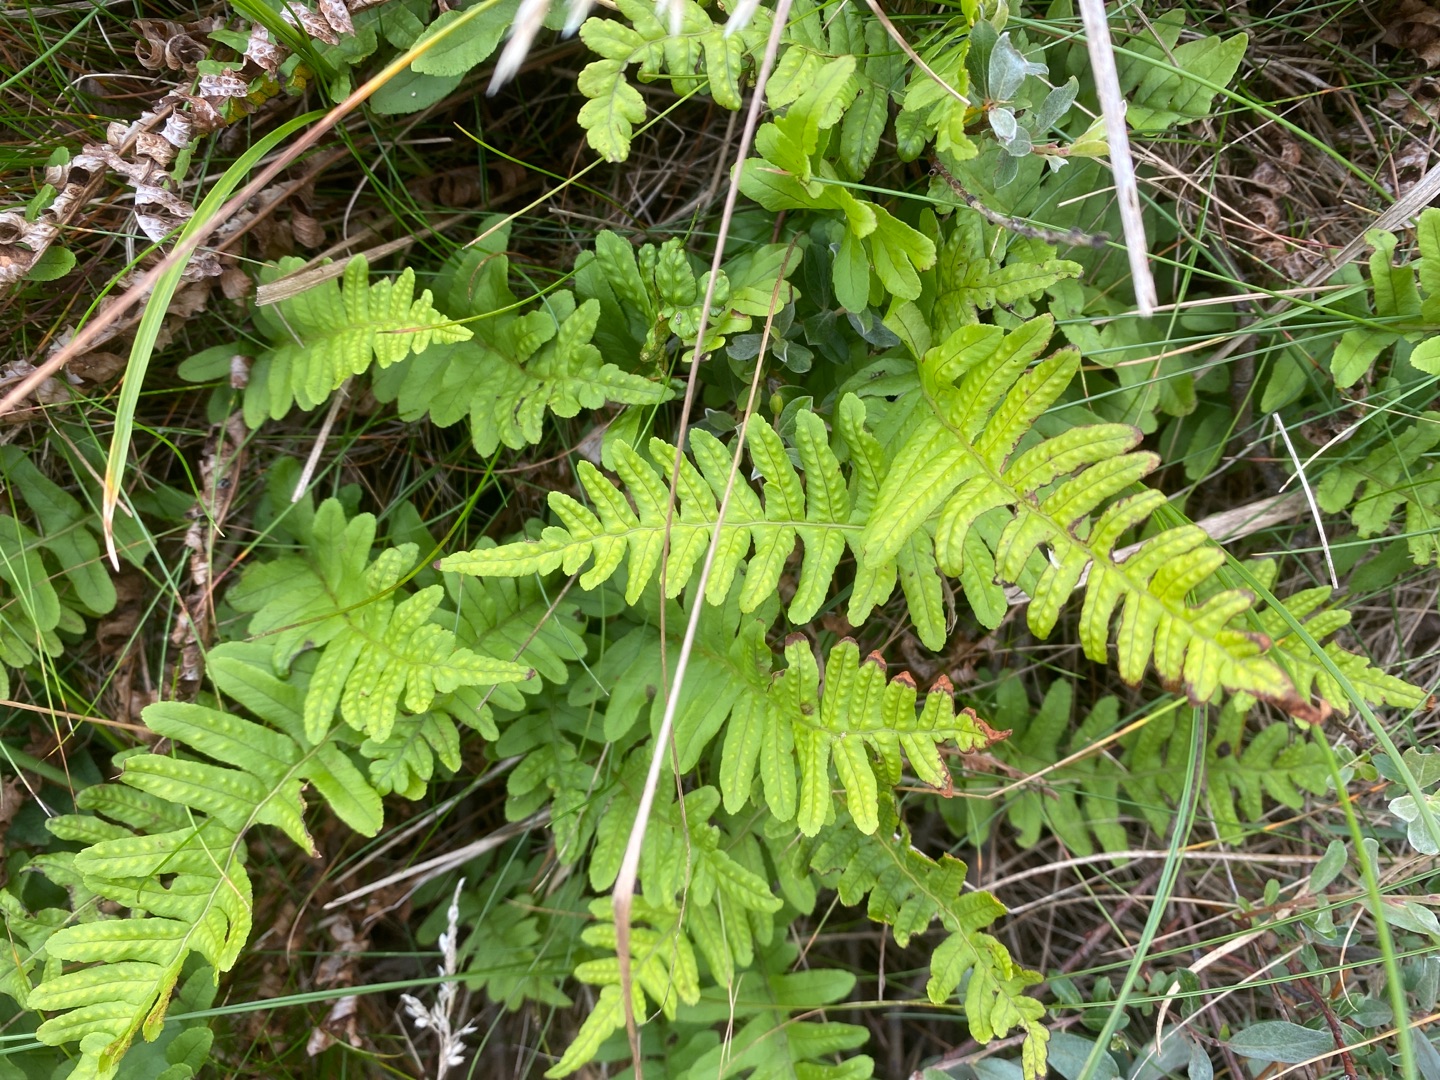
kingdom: Plantae
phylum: Tracheophyta
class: Polypodiopsida
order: Polypodiales
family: Polypodiaceae
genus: Polypodium
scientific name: Polypodium vulgare
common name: Almindelig engelsød
